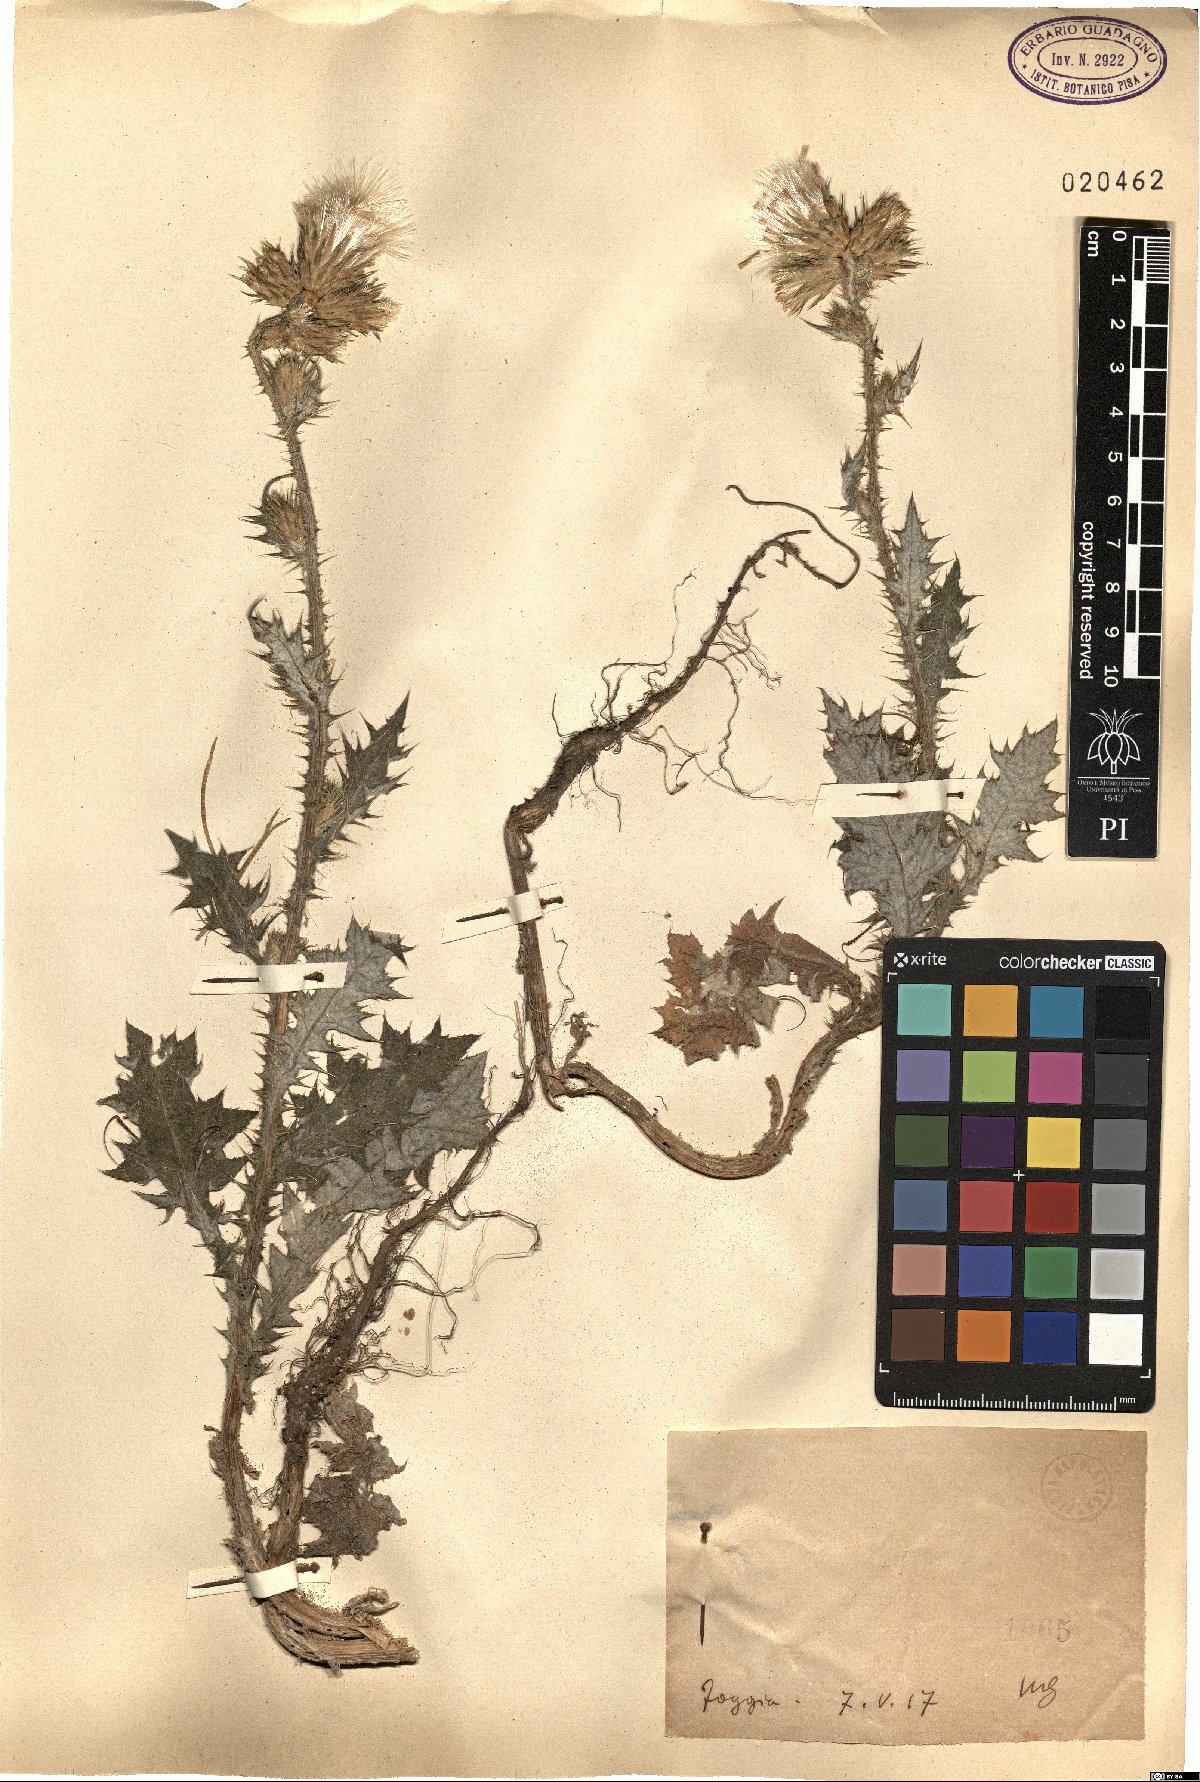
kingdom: Plantae
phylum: Tracheophyta
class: Magnoliopsida
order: Asterales
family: Asteraceae
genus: Carduus
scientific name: Carduus
